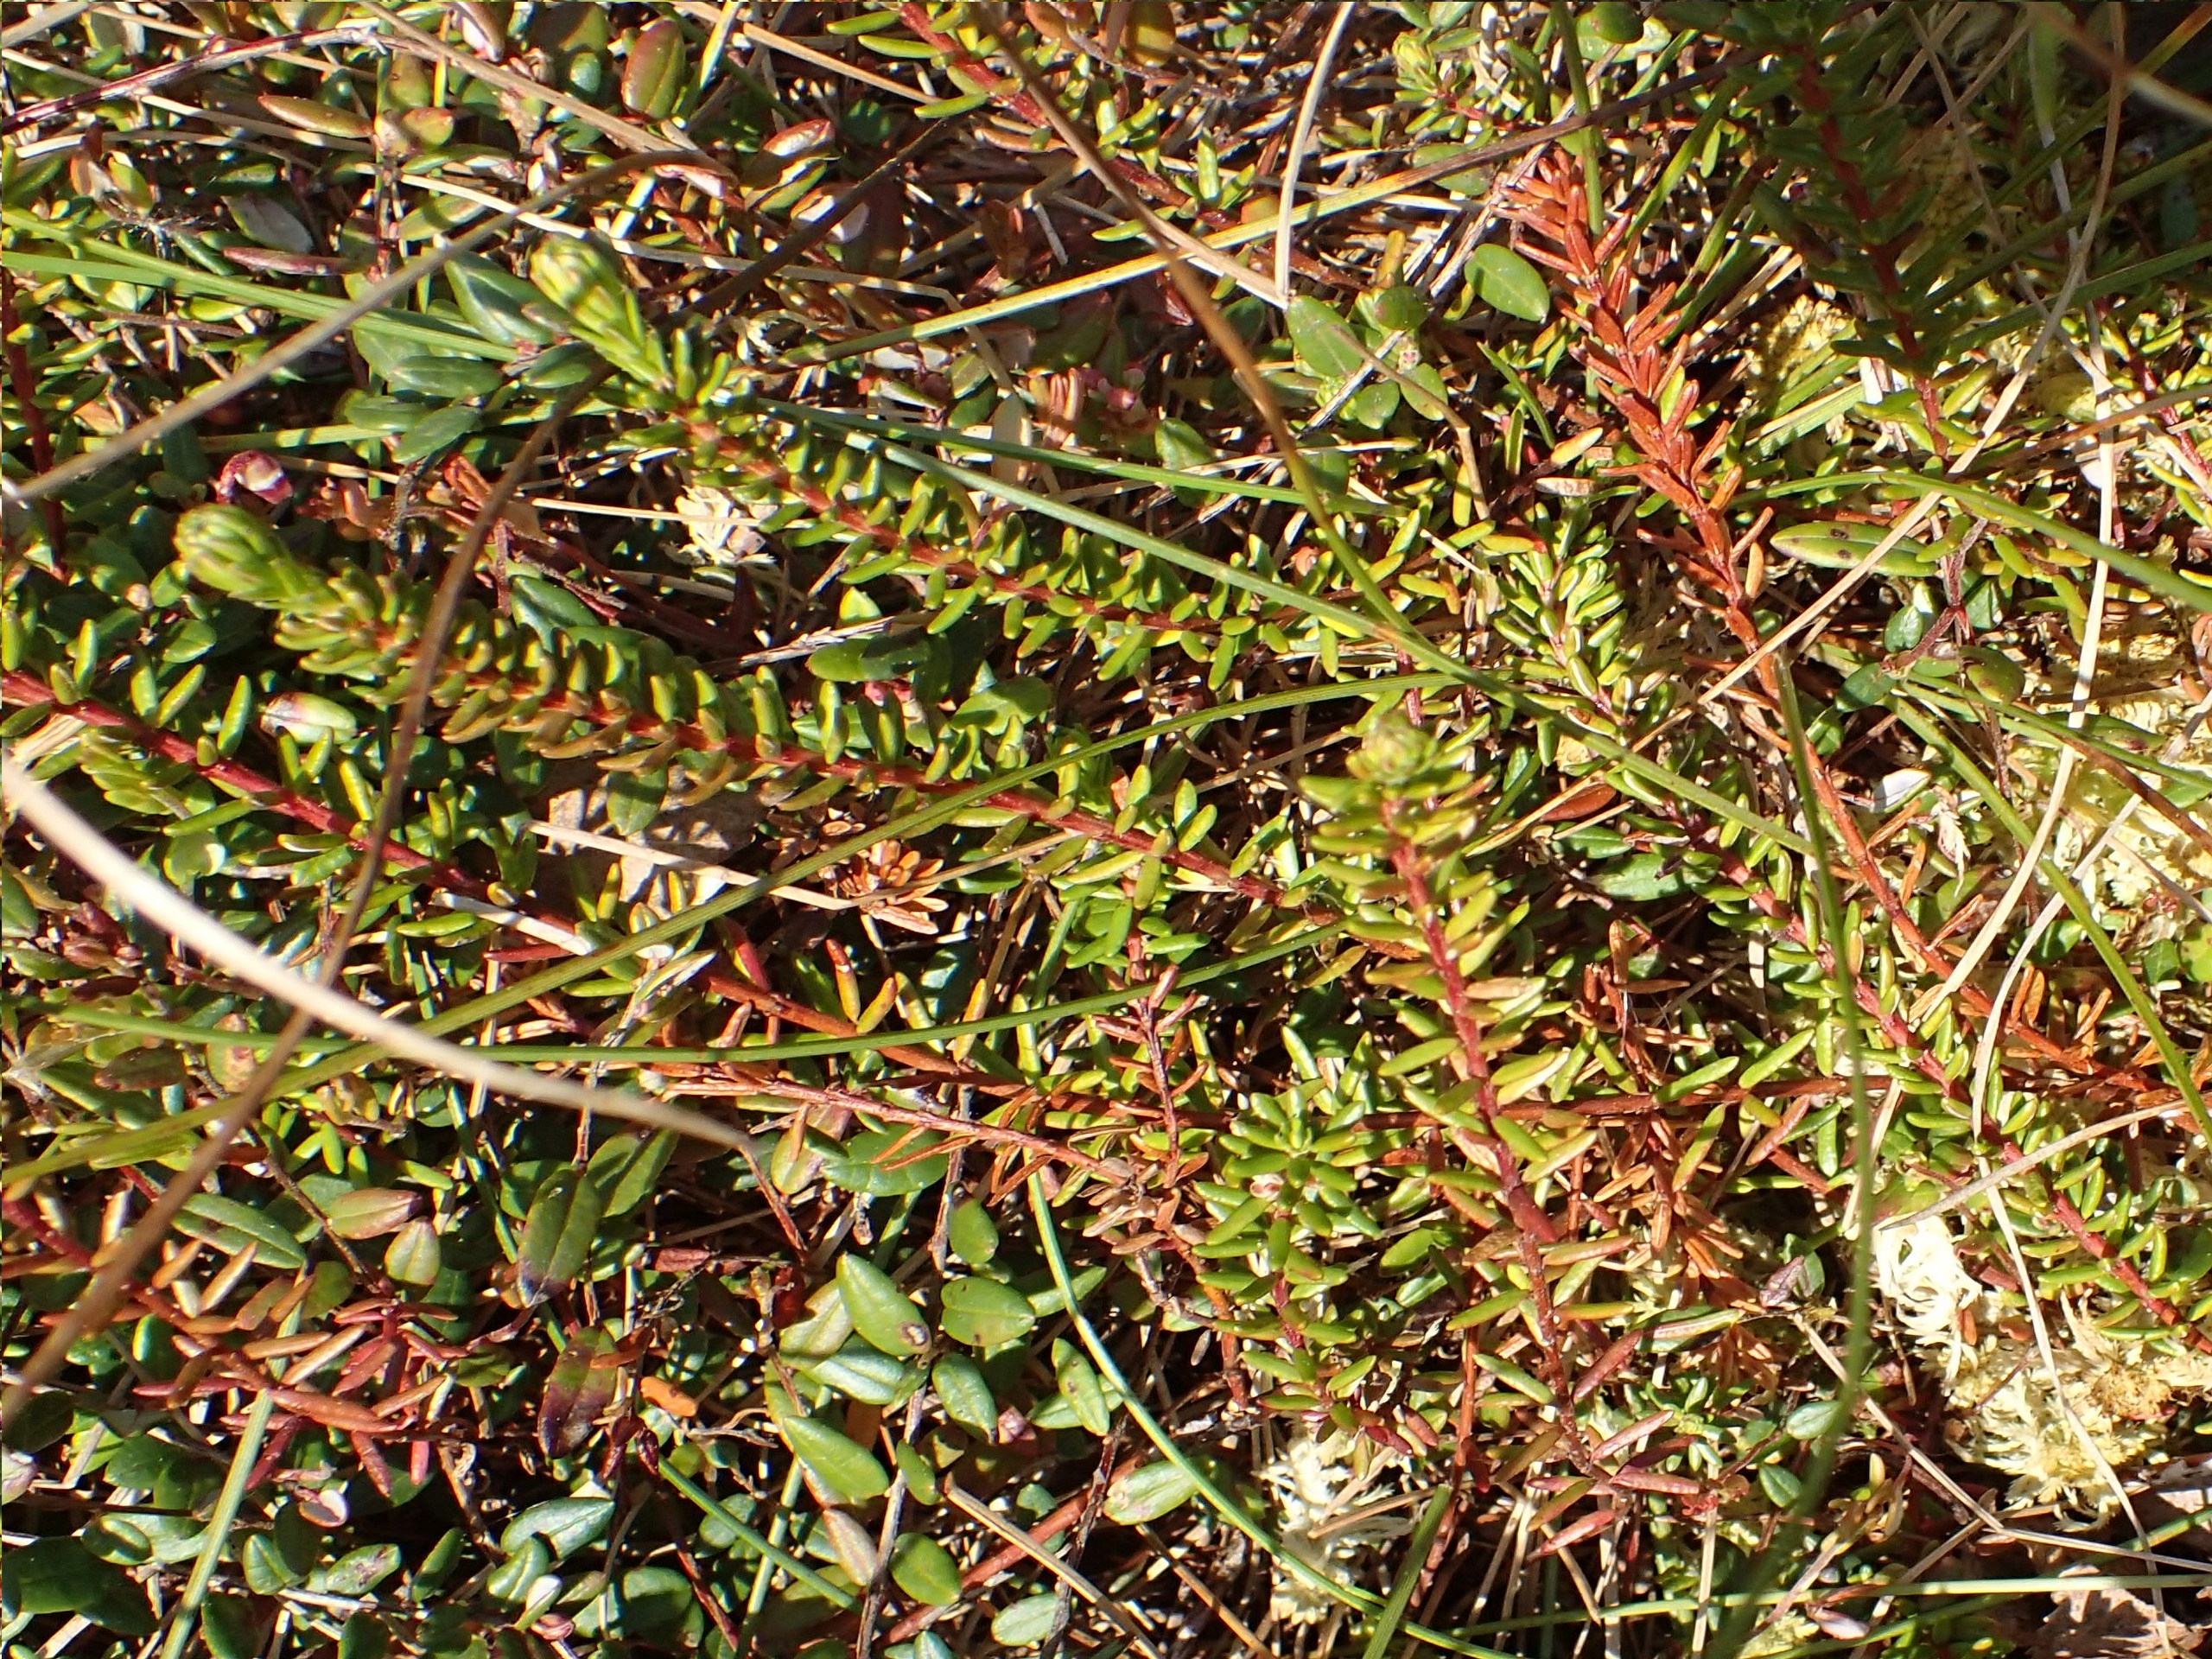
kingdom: Plantae
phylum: Tracheophyta
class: Magnoliopsida
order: Ericales
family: Ericaceae
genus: Empetrum
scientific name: Empetrum nigrum
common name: Revling
